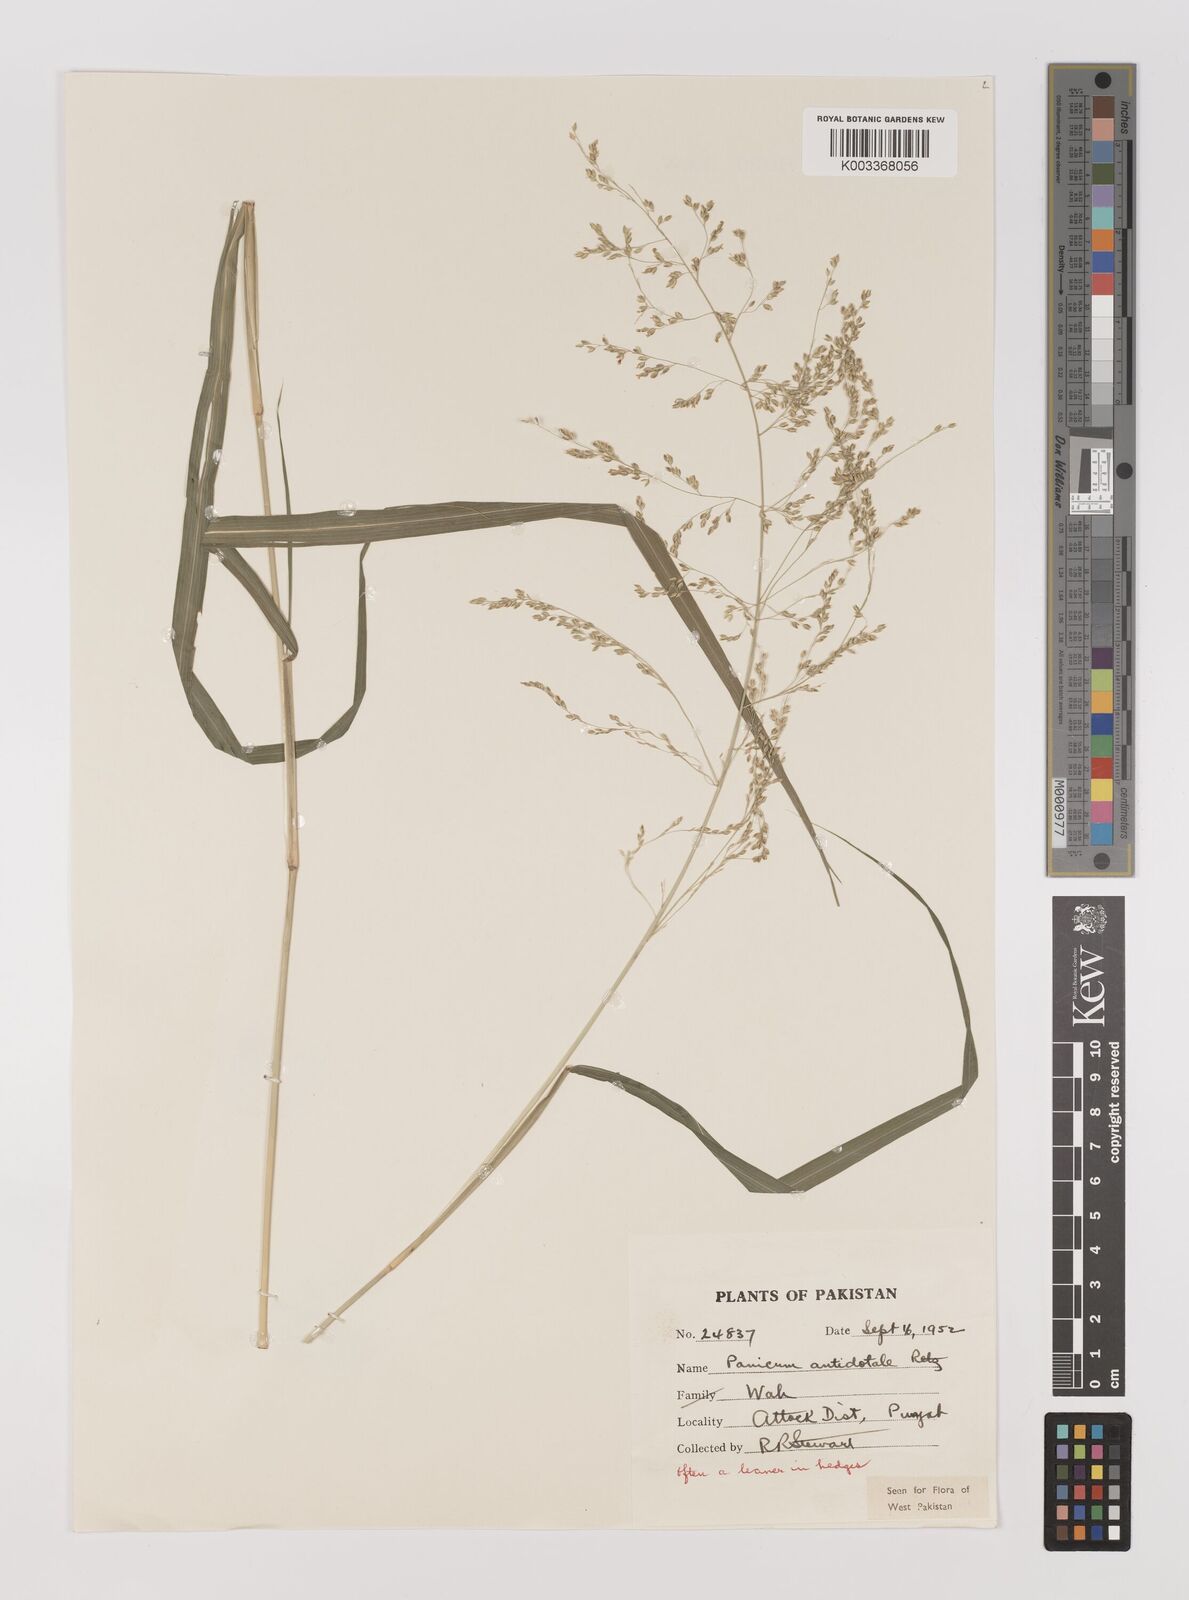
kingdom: Plantae
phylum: Tracheophyta
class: Liliopsida
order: Poales
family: Poaceae
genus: Panicum
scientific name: Panicum antidotale
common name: Blue panicum
